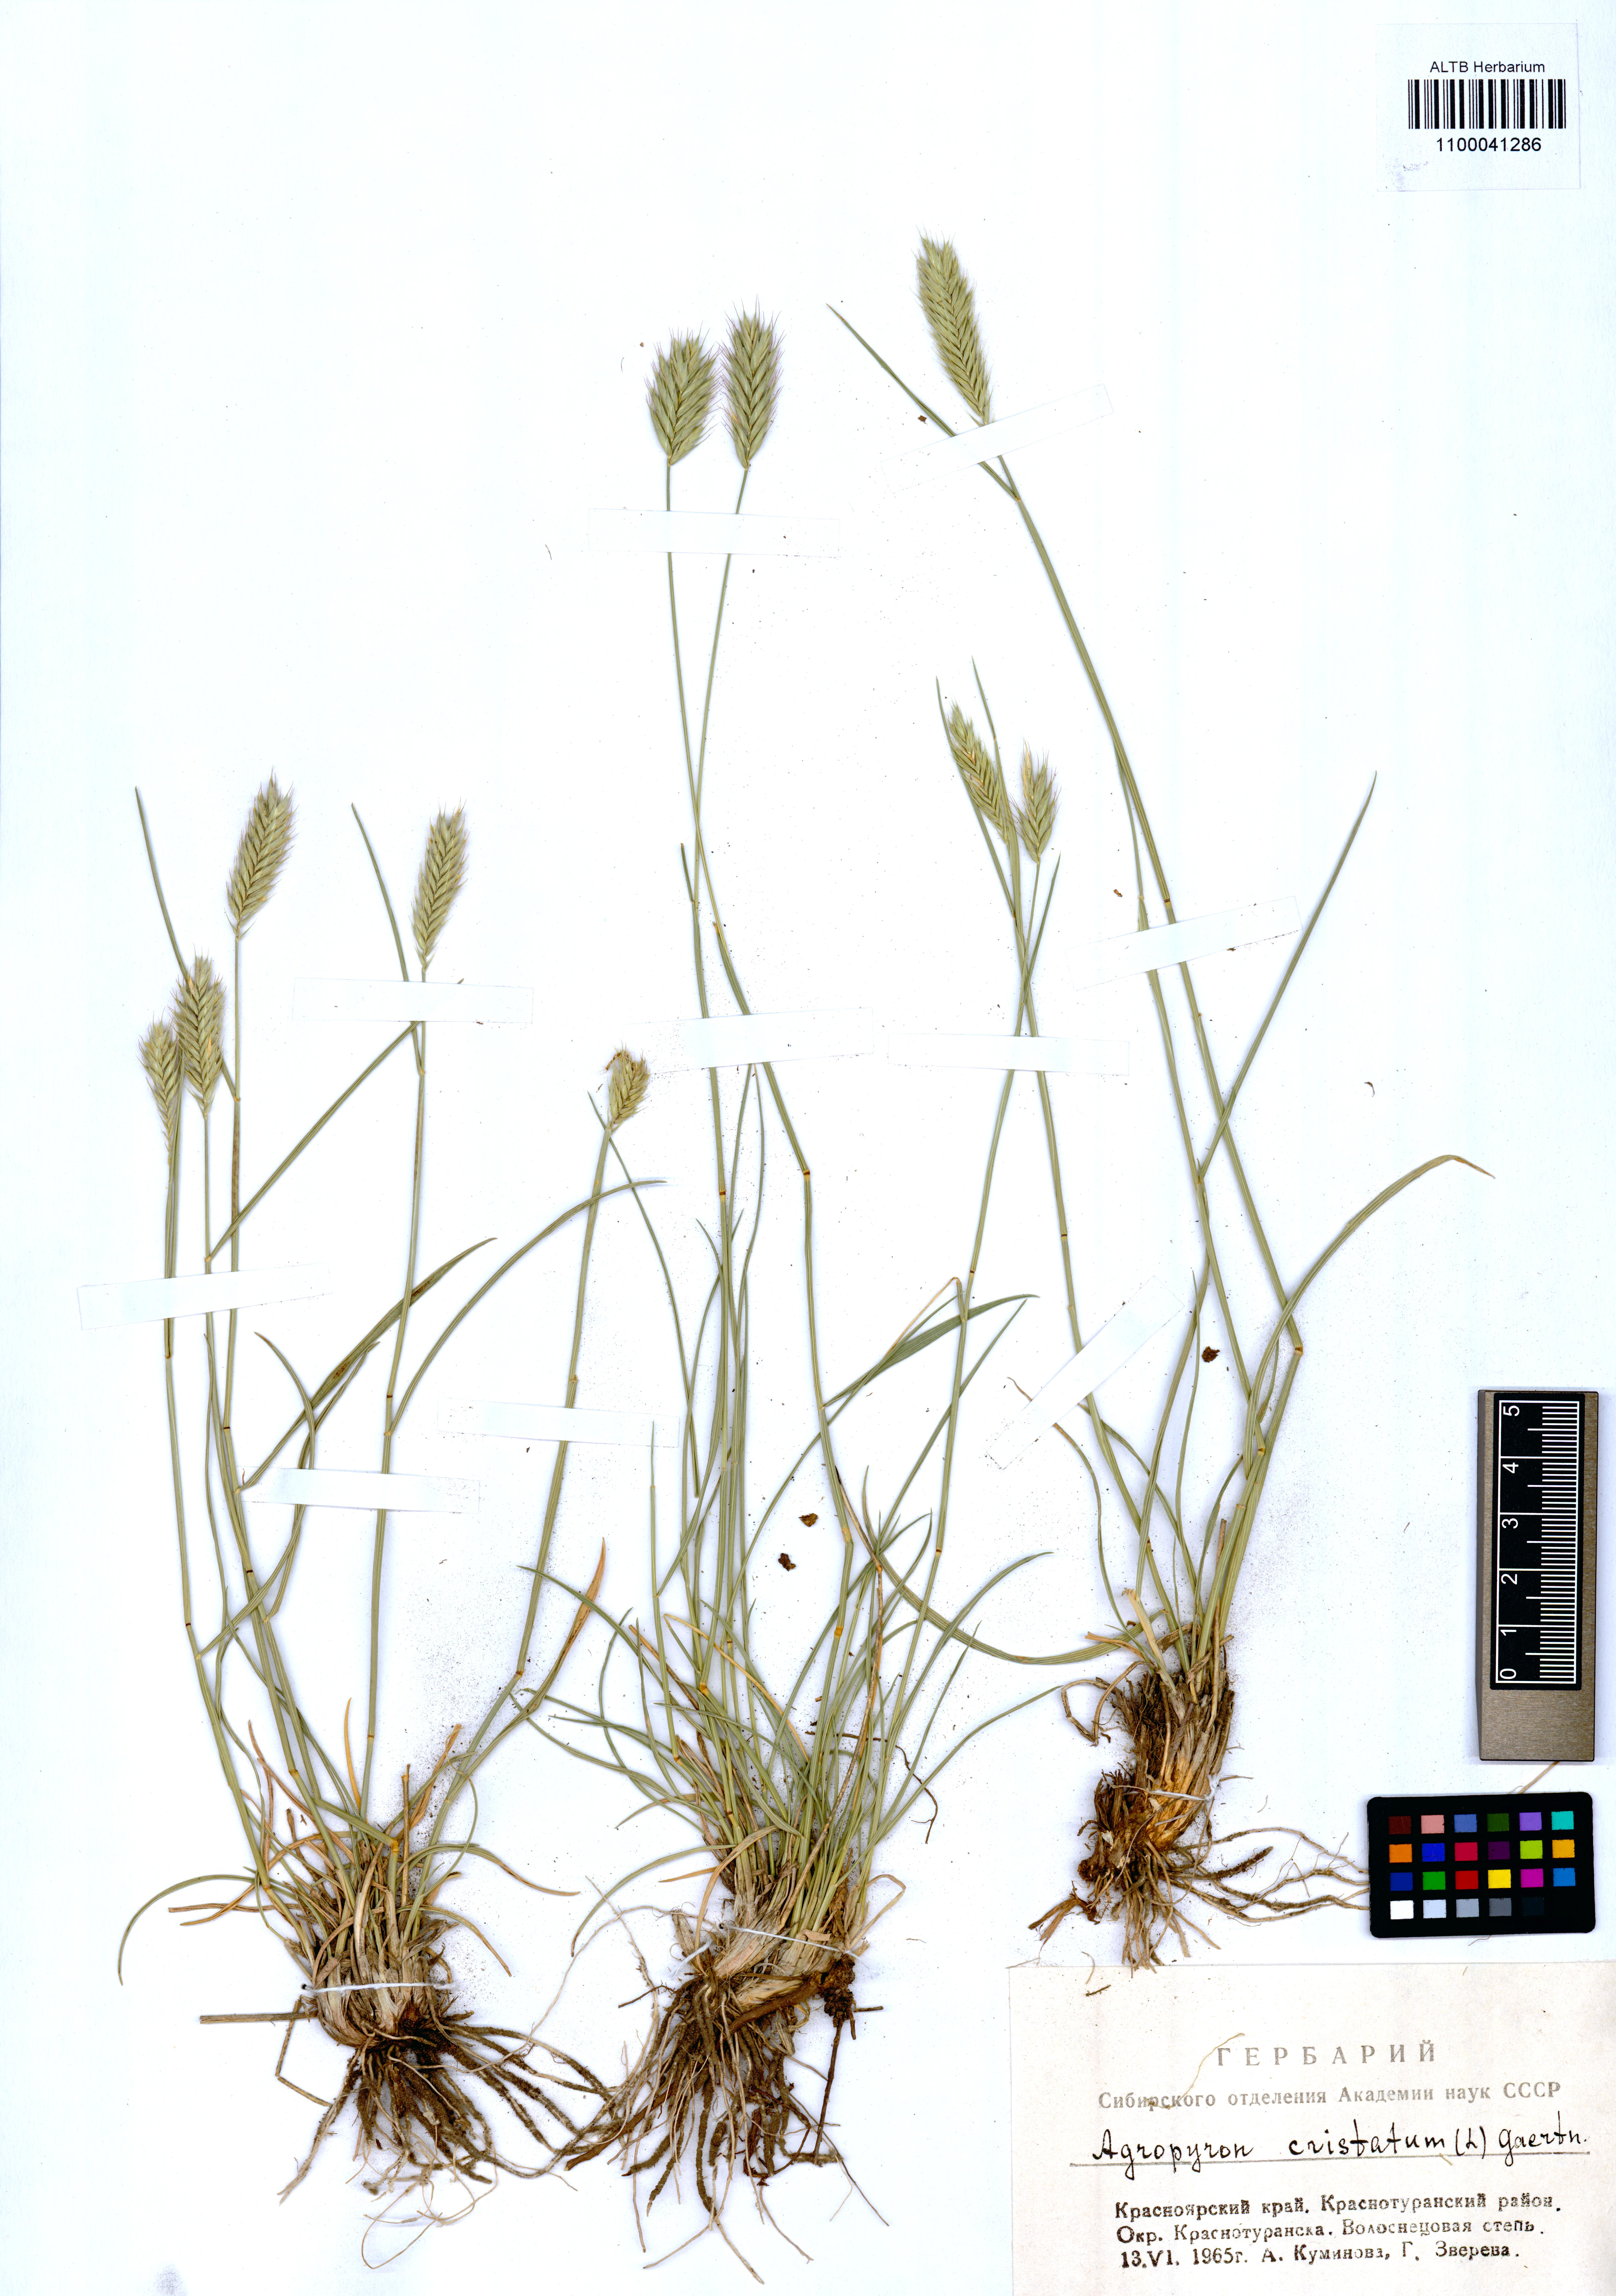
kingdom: Plantae
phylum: Tracheophyta
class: Liliopsida
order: Poales
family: Poaceae
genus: Agropyron
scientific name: Agropyron cristatum
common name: Crested wheatgrass
